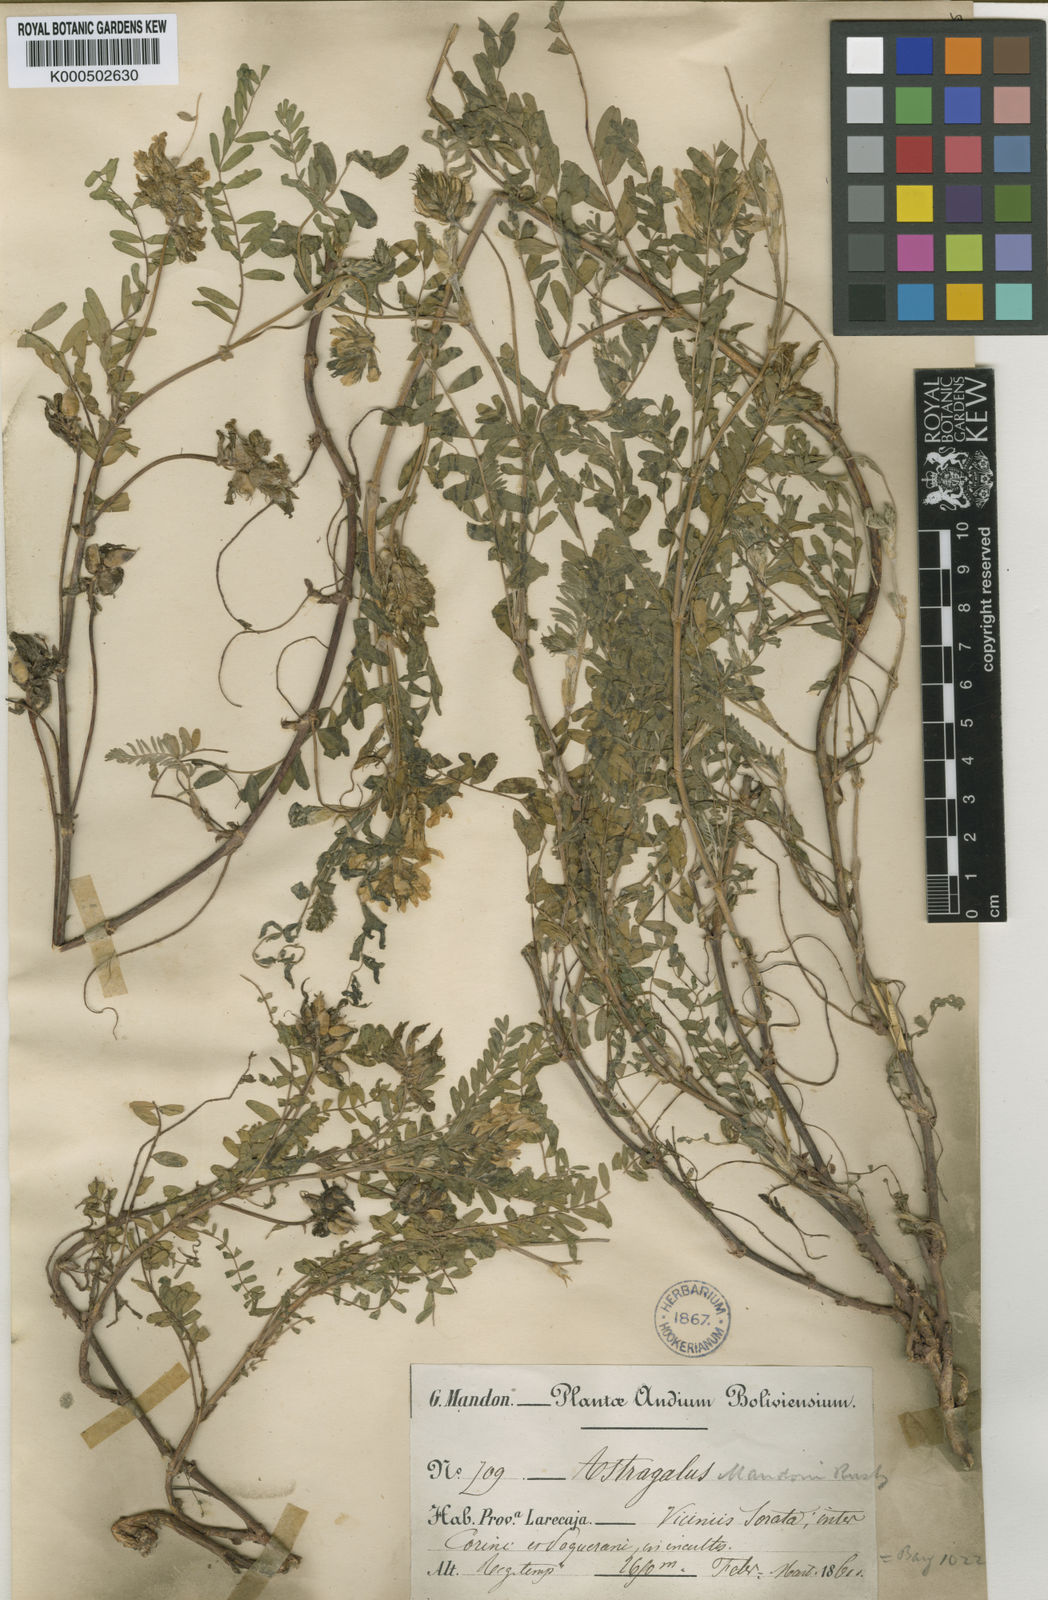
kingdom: Plantae
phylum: Tracheophyta
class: Magnoliopsida
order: Fabales
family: Fabaceae
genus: Astragalus
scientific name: Astragalus garbancillo
